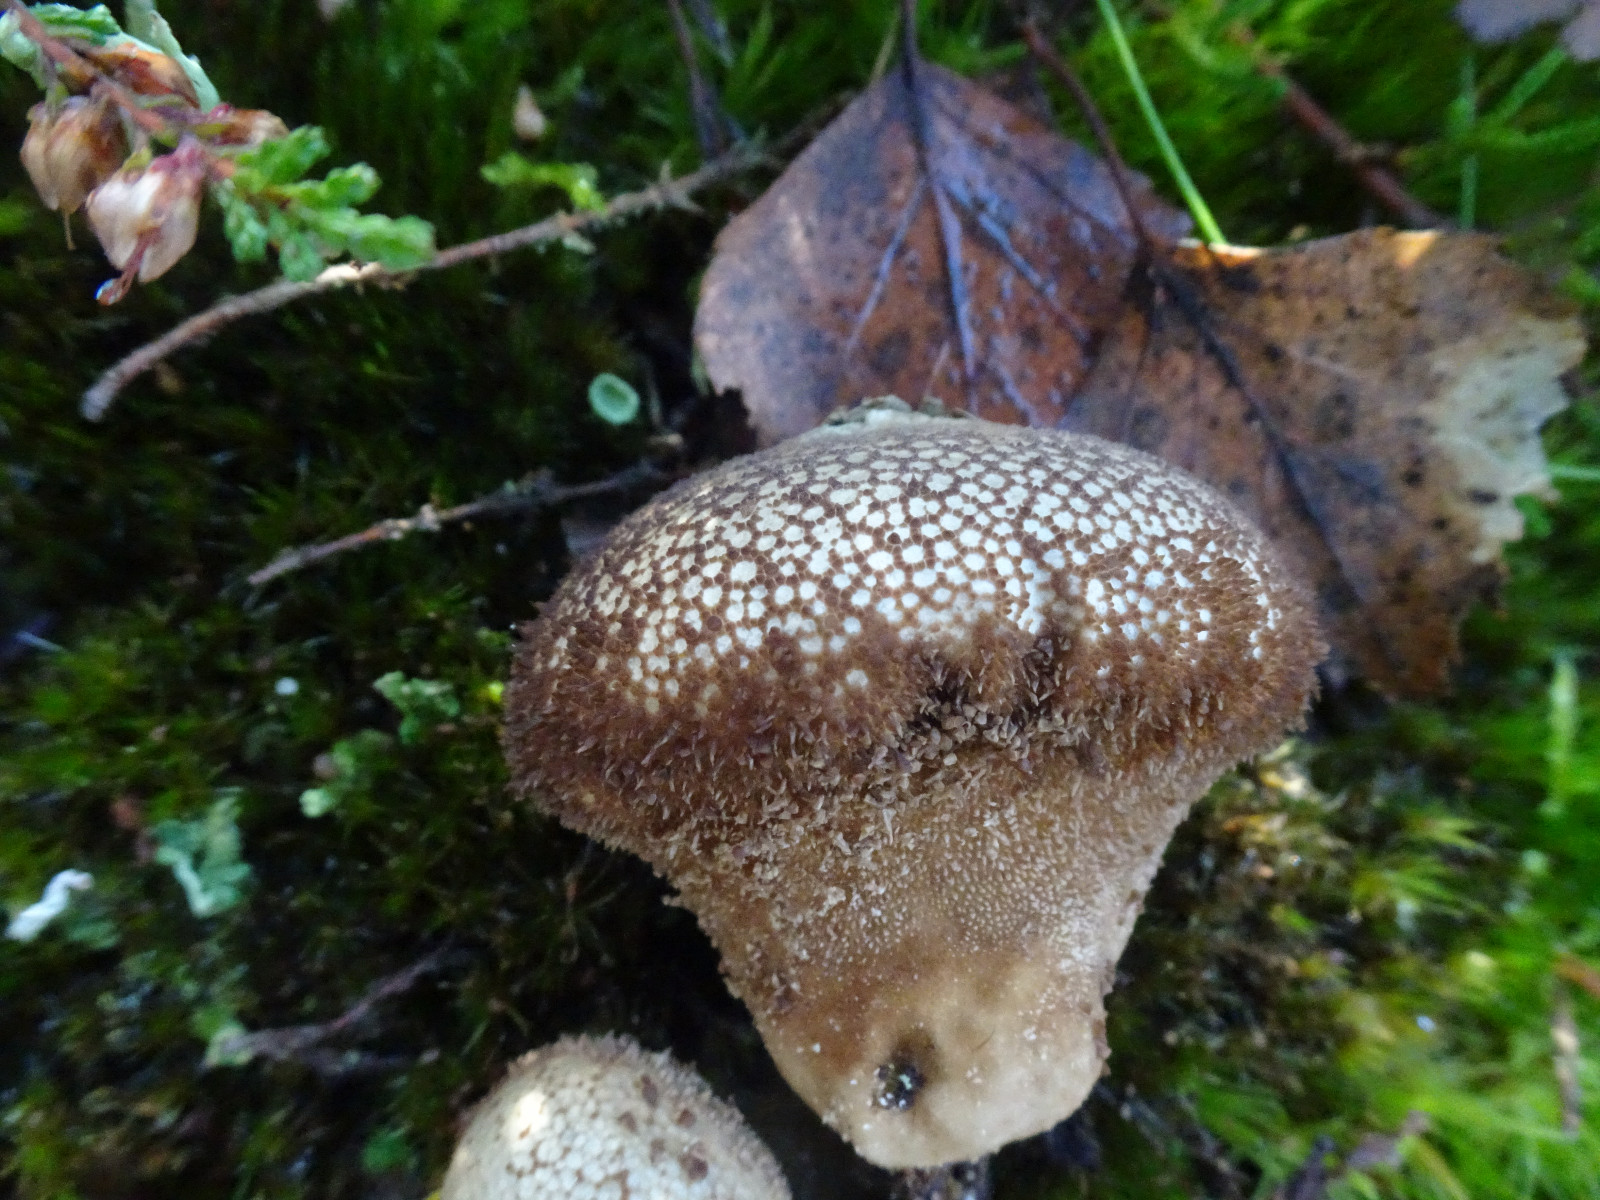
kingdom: Fungi
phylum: Basidiomycota
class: Agaricomycetes
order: Agaricales
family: Lycoperdaceae
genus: Lycoperdon
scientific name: Lycoperdon nigrescens
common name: sortagtig støvbold
